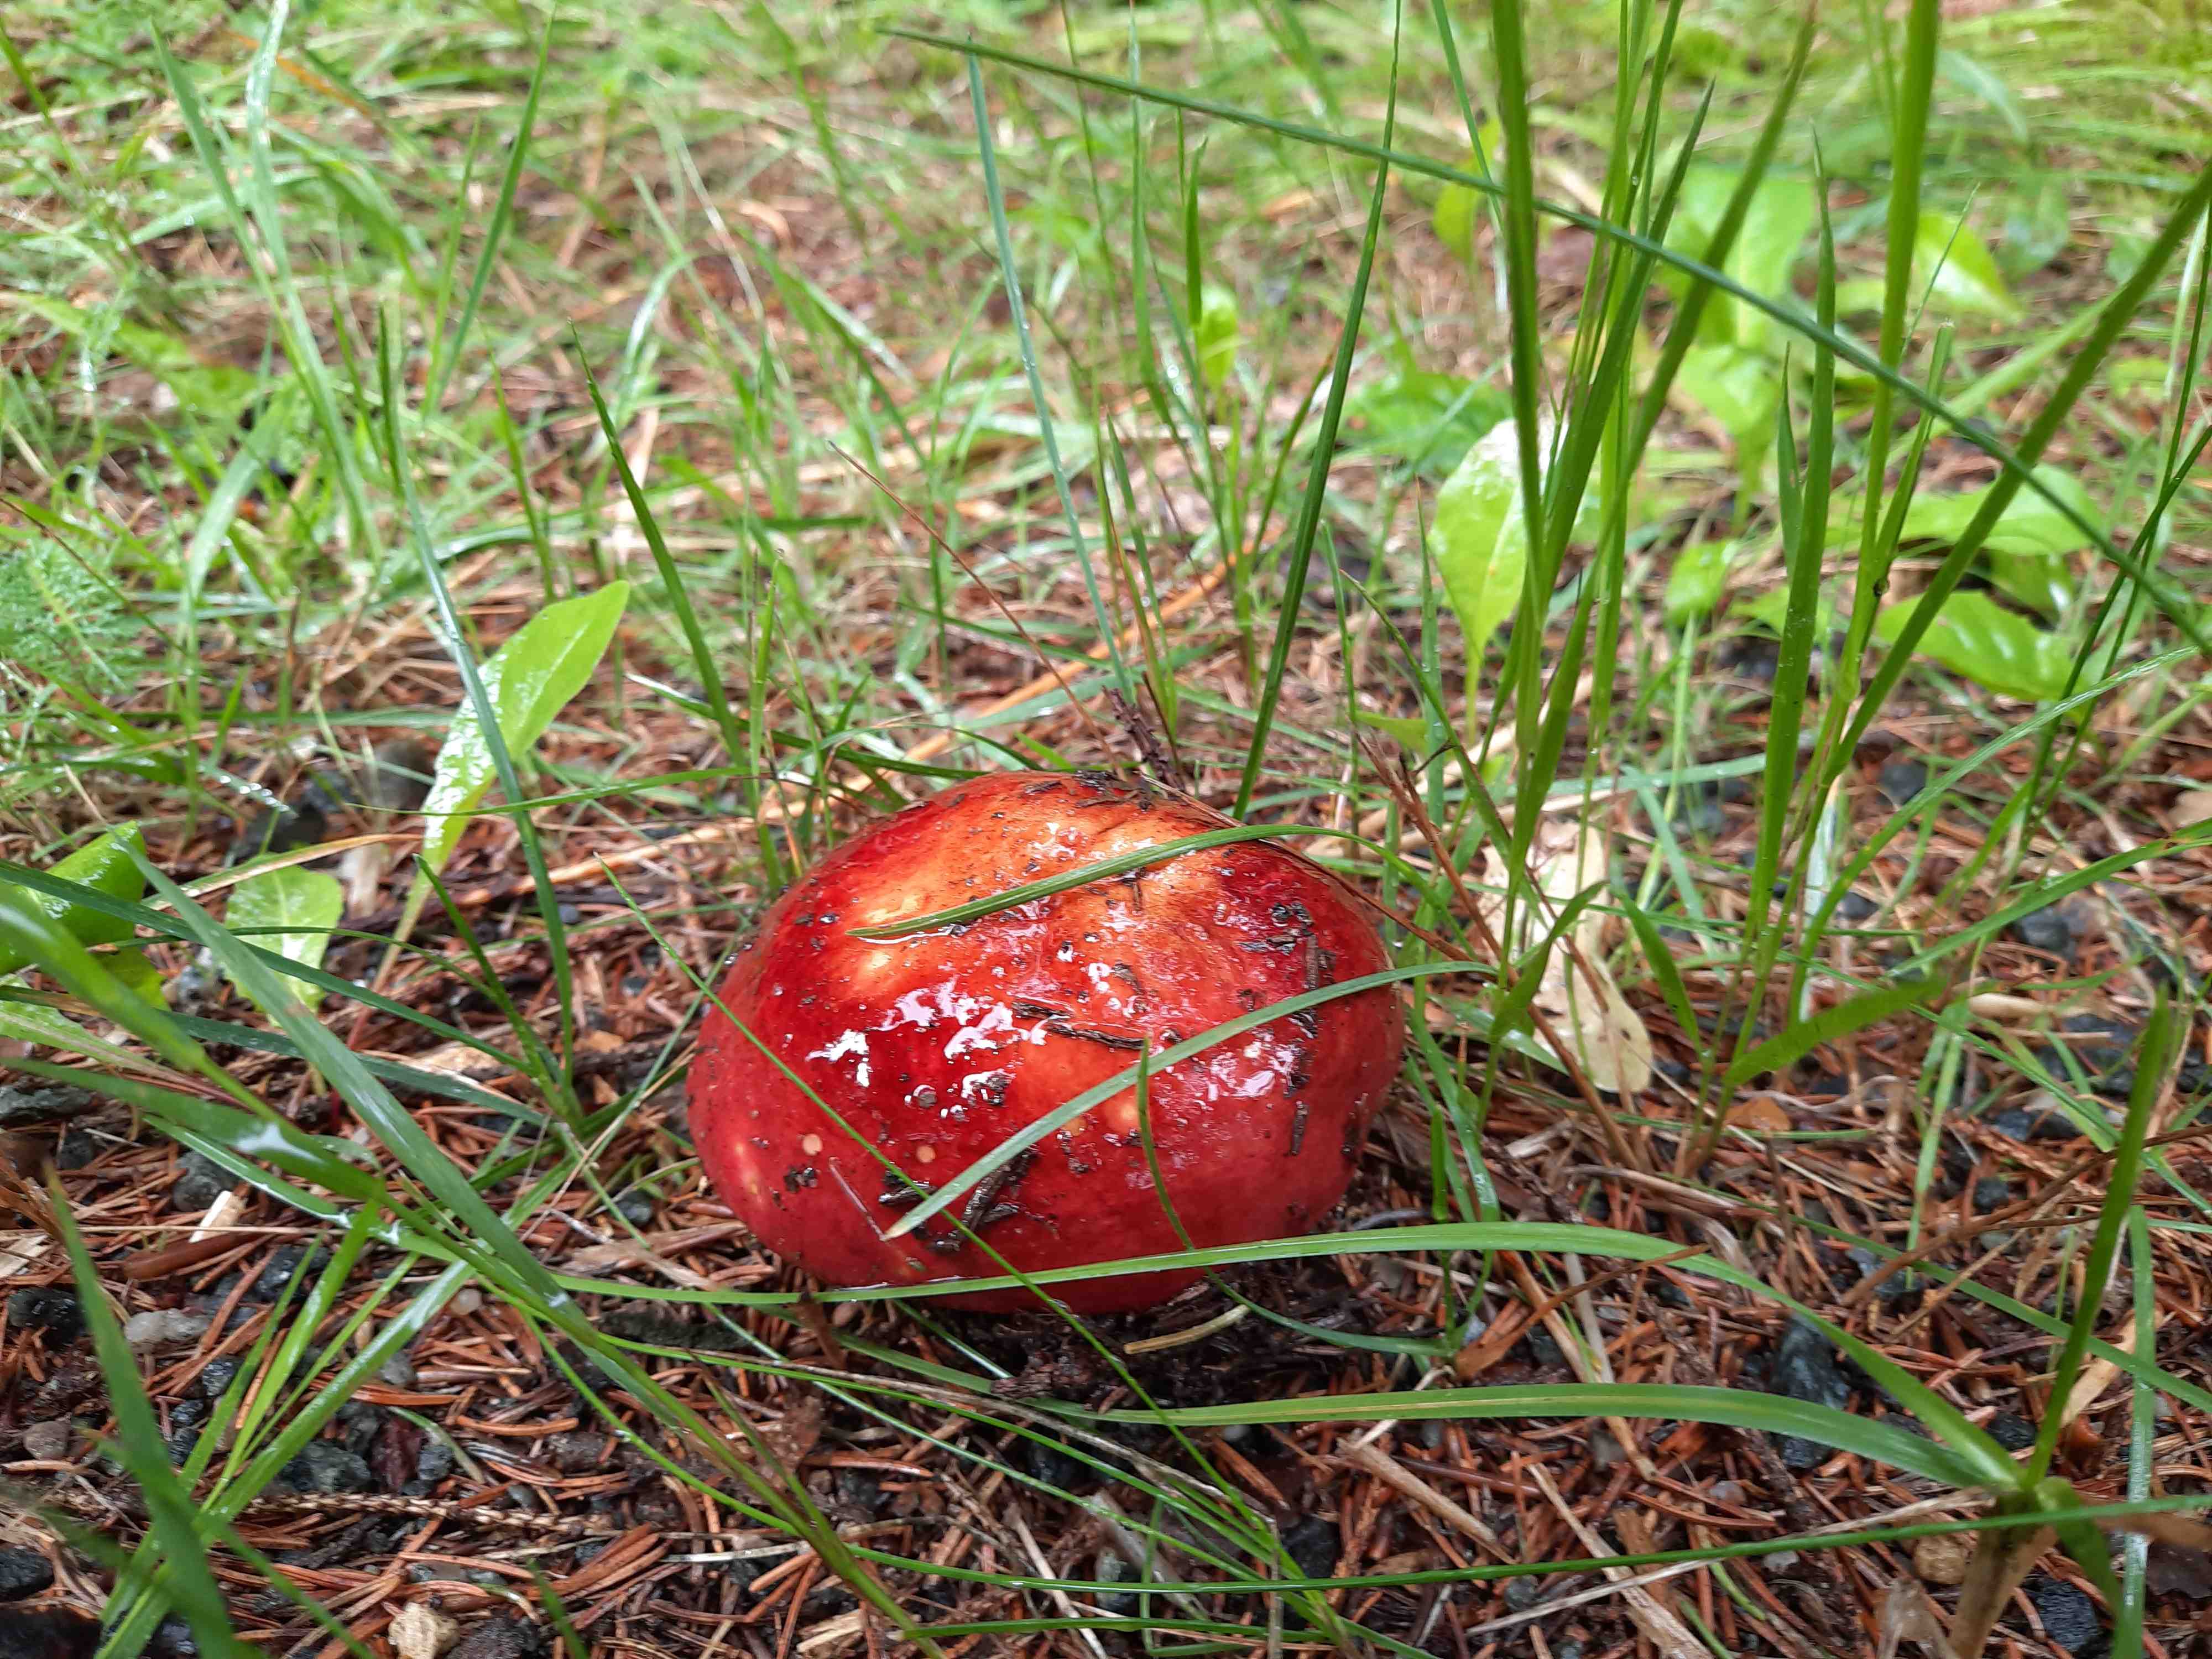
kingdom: Fungi
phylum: Basidiomycota
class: Agaricomycetes
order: Russulales
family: Russulaceae
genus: Russula
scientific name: Russula xerampelina
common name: hummer-skørhat
